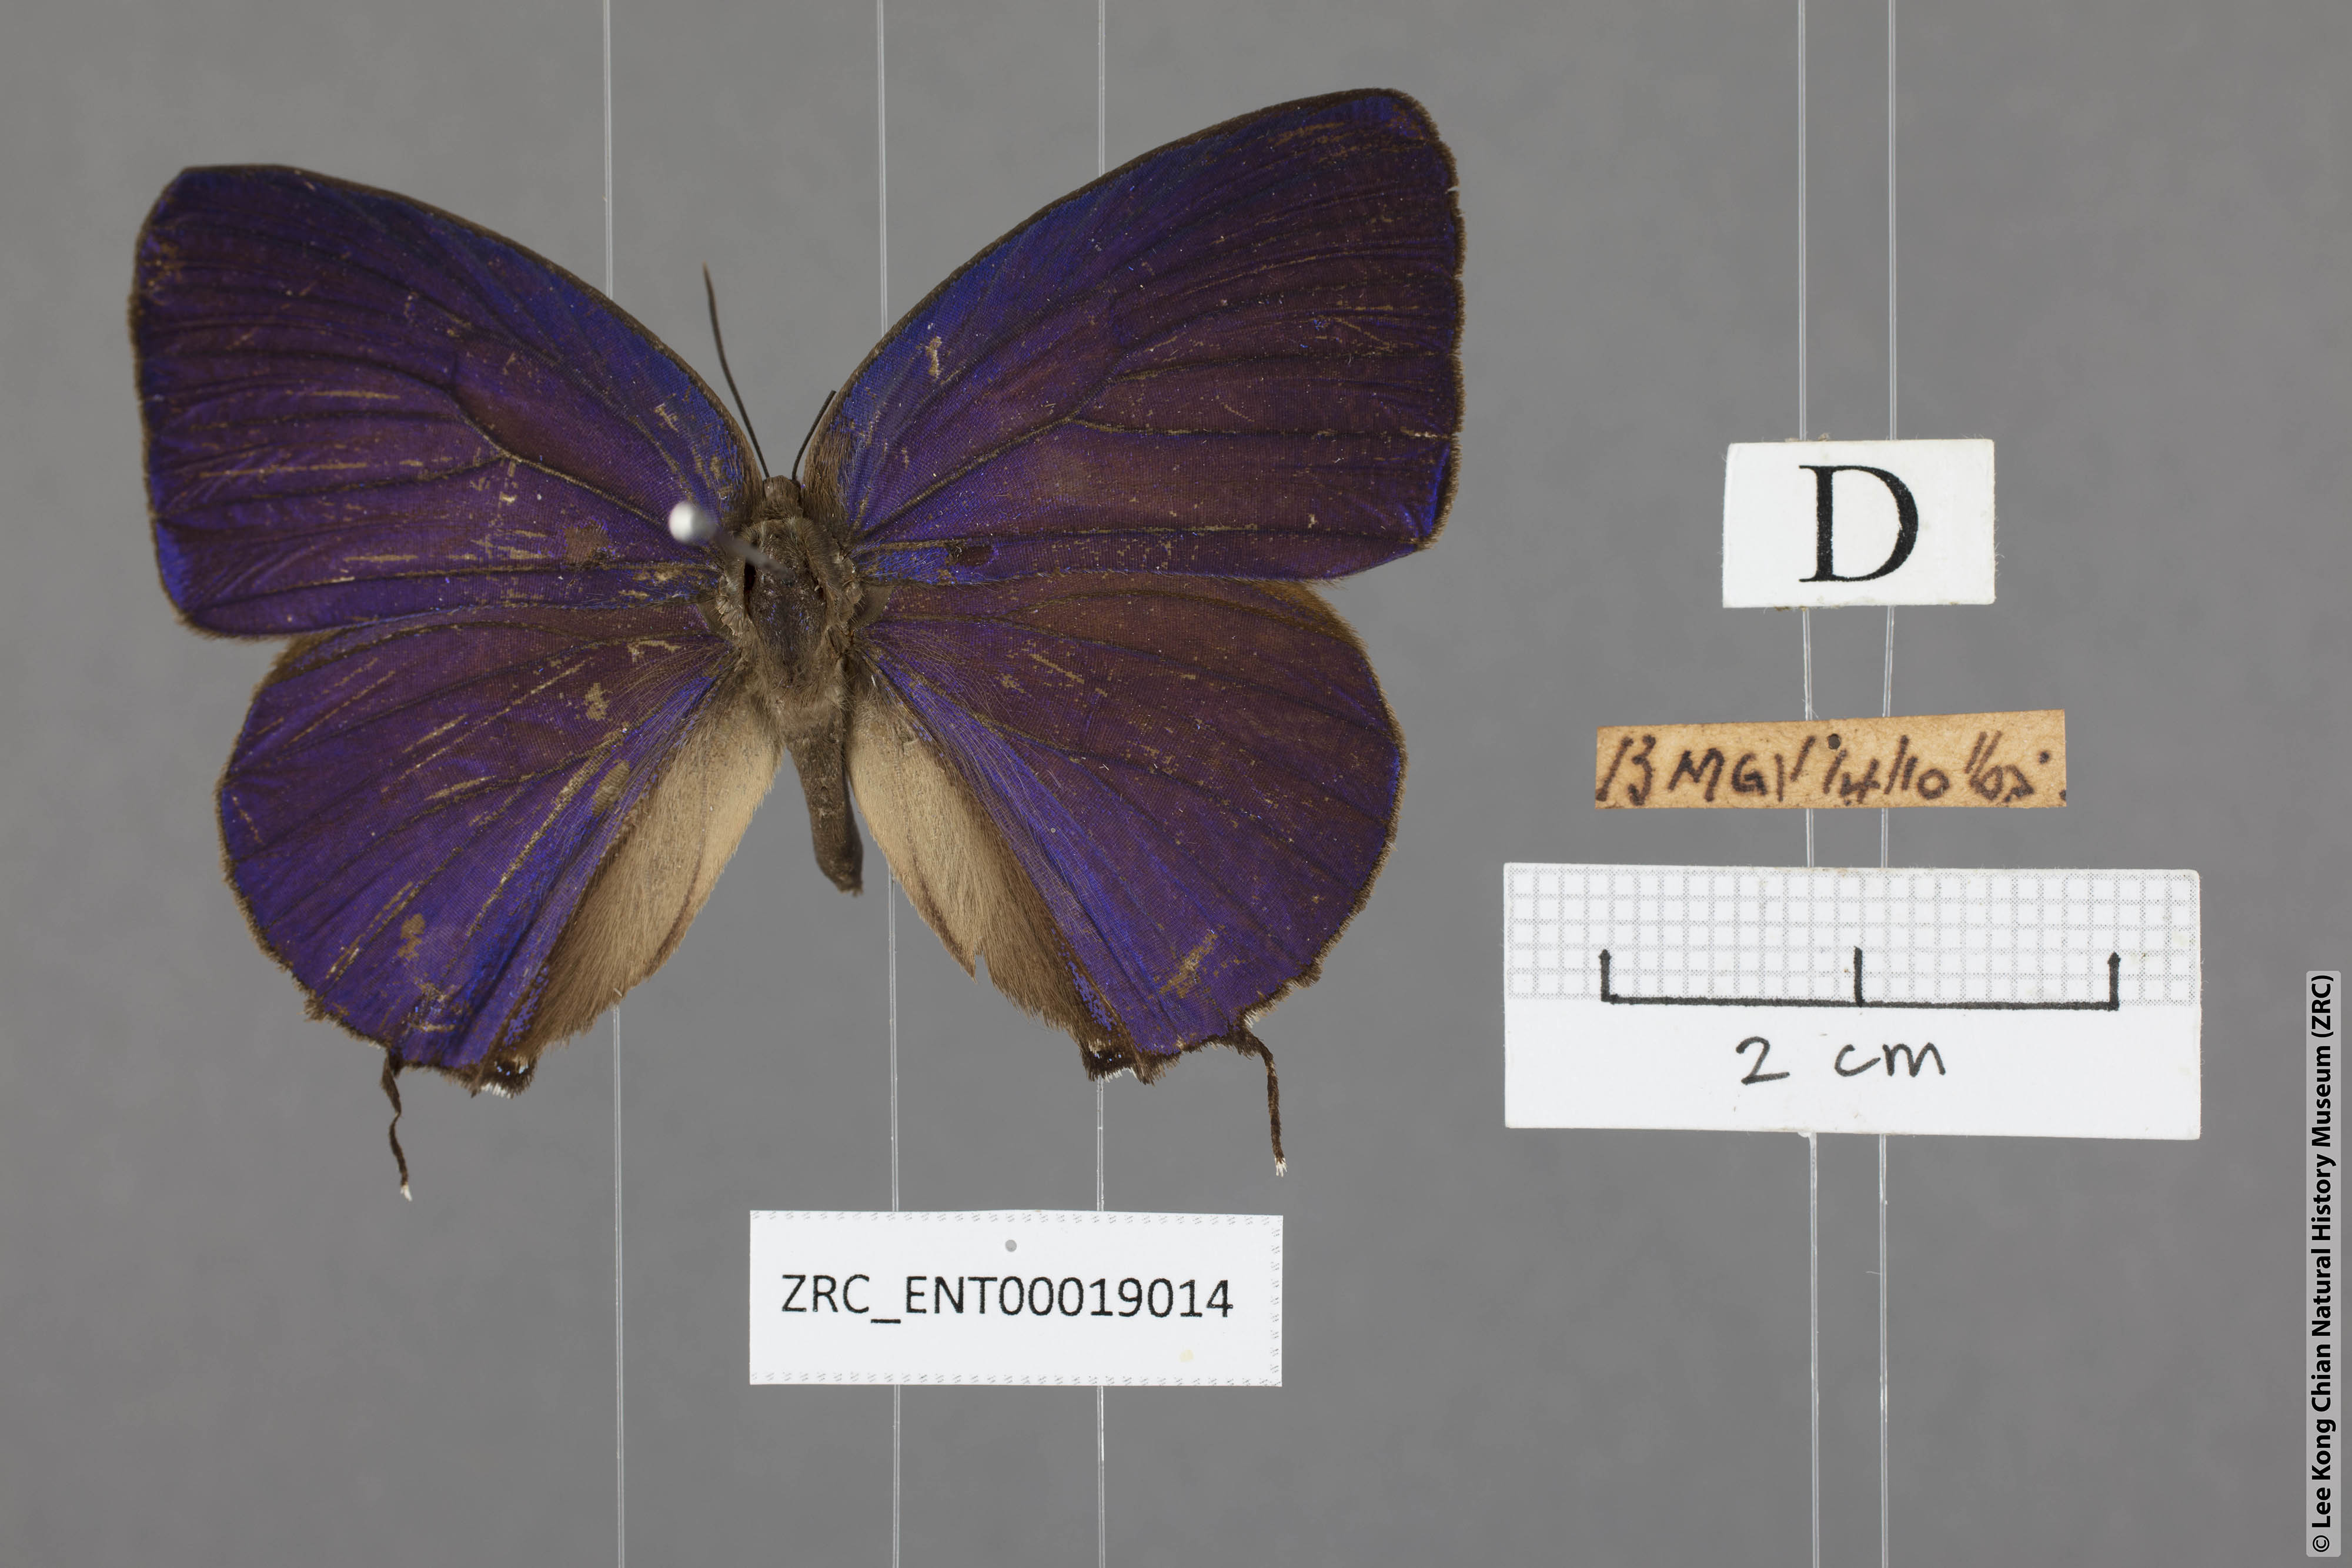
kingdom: Animalia
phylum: Arthropoda
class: Insecta
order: Lepidoptera
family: Lycaenidae
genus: Arhopala
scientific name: Arhopala aedias
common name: Large metallic oakblue
